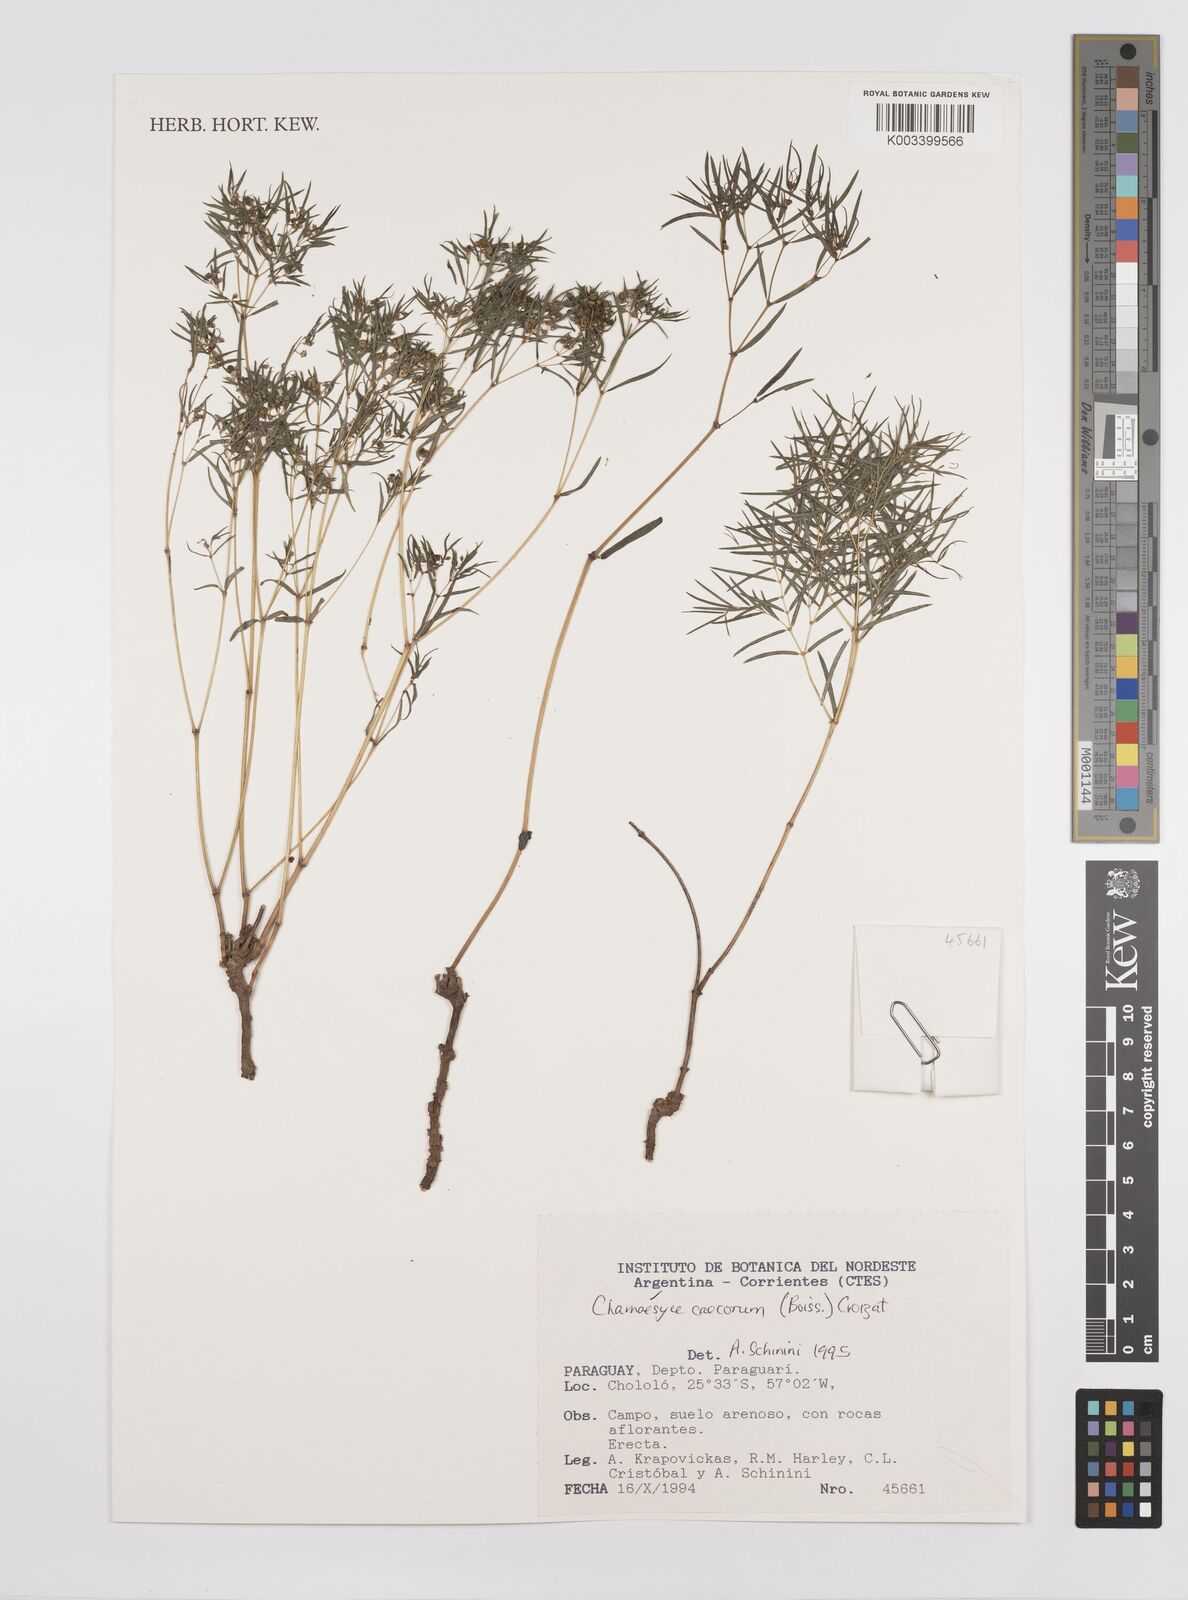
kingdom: Plantae
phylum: Tracheophyta
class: Magnoliopsida
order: Malpighiales
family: Euphorbiaceae
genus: Euphorbia
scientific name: Euphorbia potentilloides
